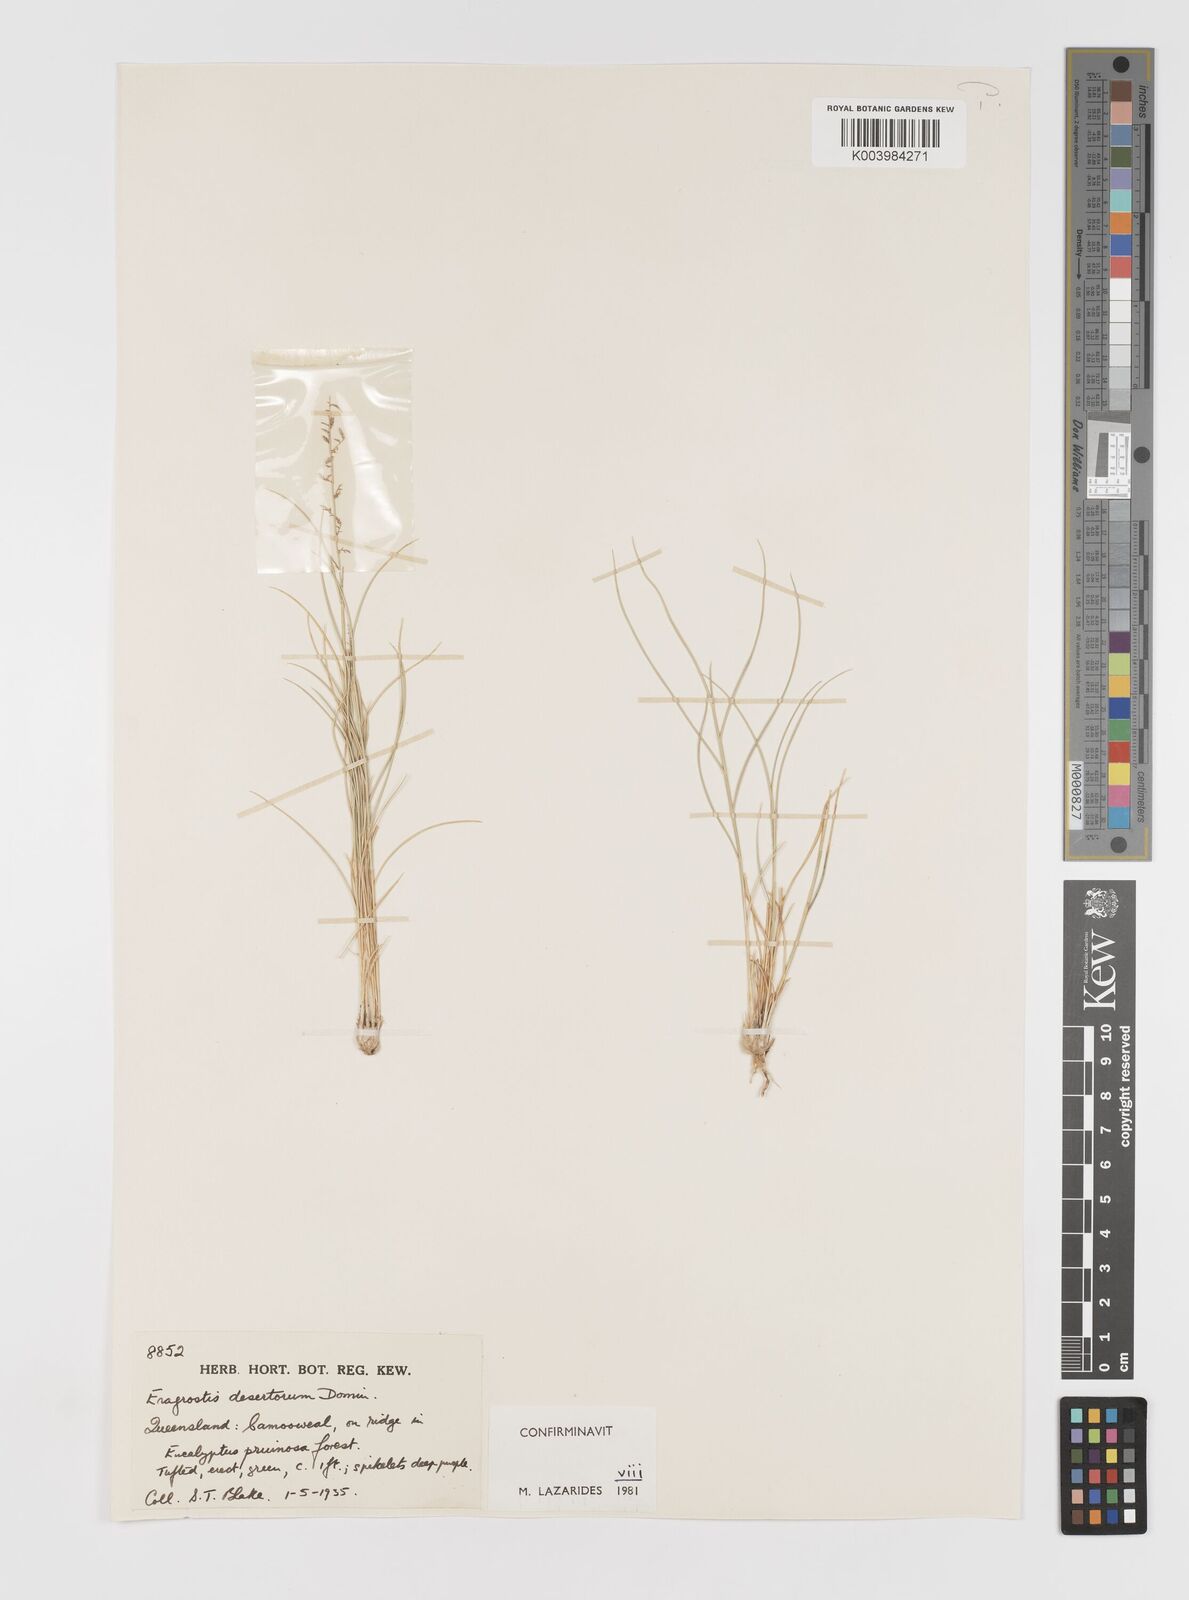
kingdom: Plantae
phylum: Tracheophyta
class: Liliopsida
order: Poales
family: Poaceae
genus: Eragrostis
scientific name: Eragrostis desertorum
